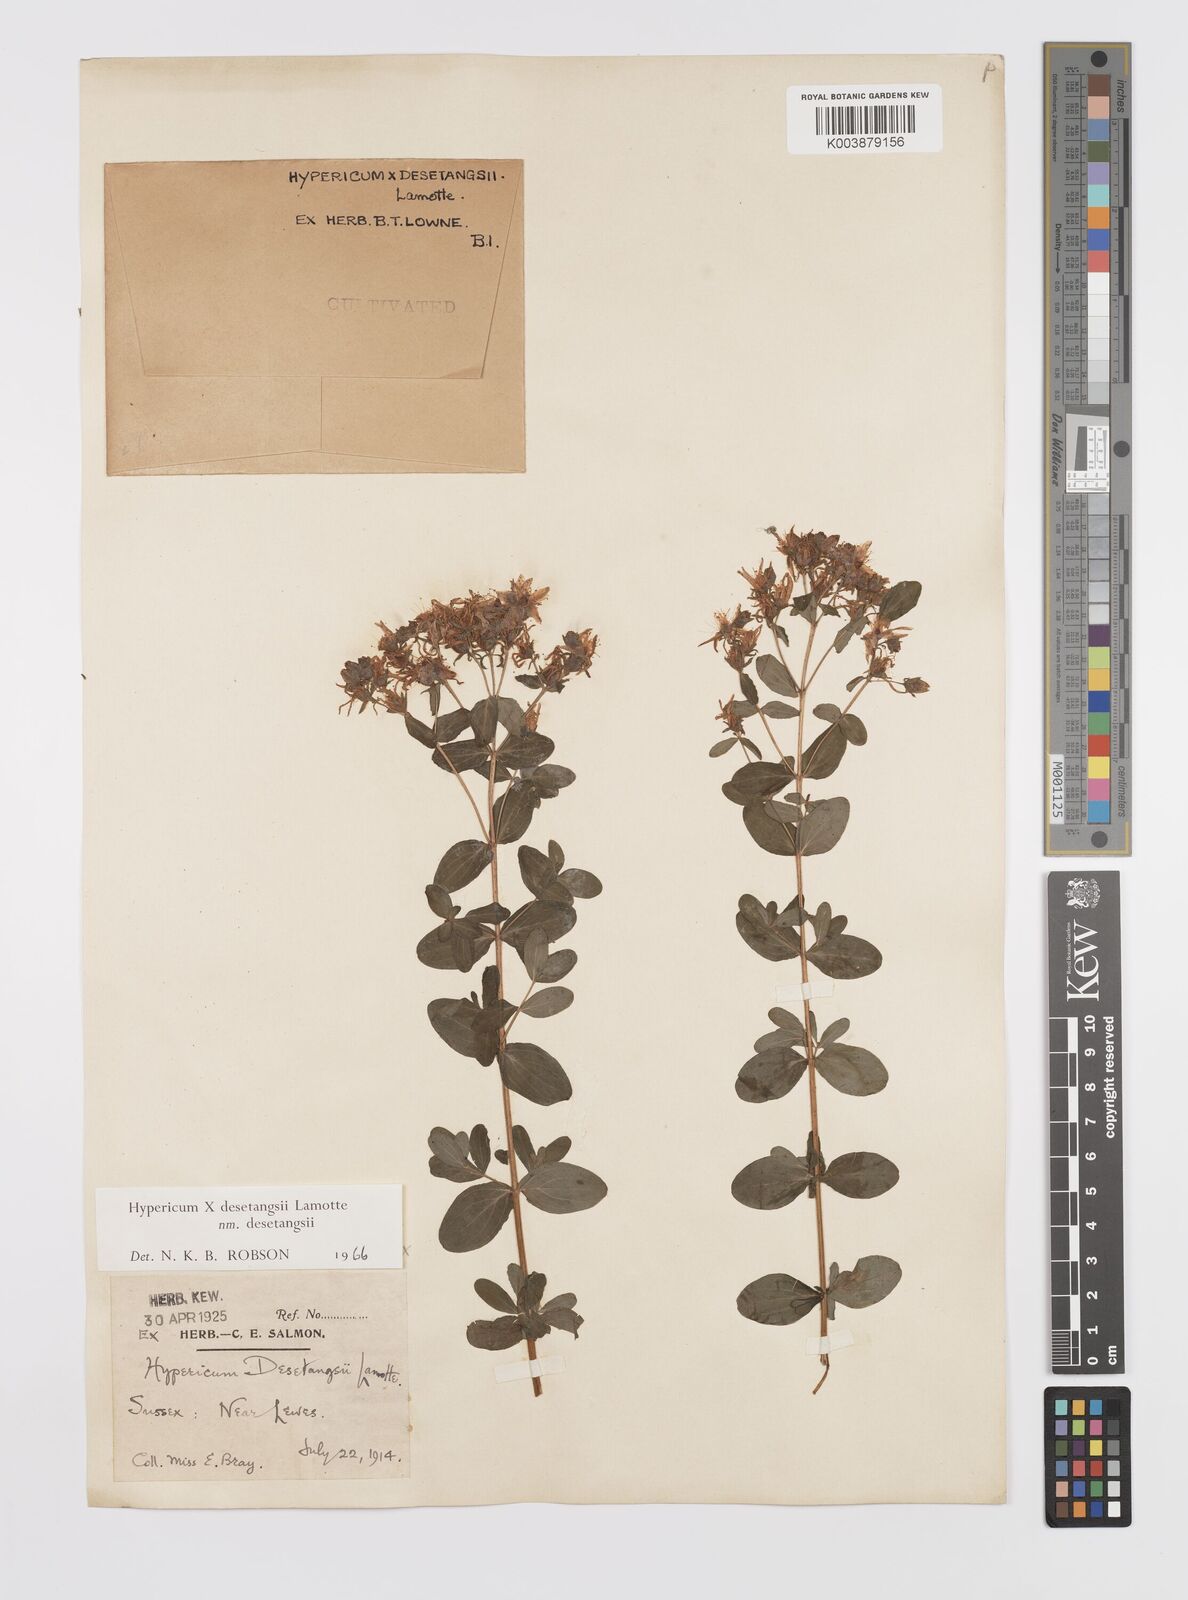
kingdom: Plantae
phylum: Tracheophyta
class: Magnoliopsida
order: Malpighiales
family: Hypericaceae
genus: Hypericum
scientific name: Hypericum desetangsii
